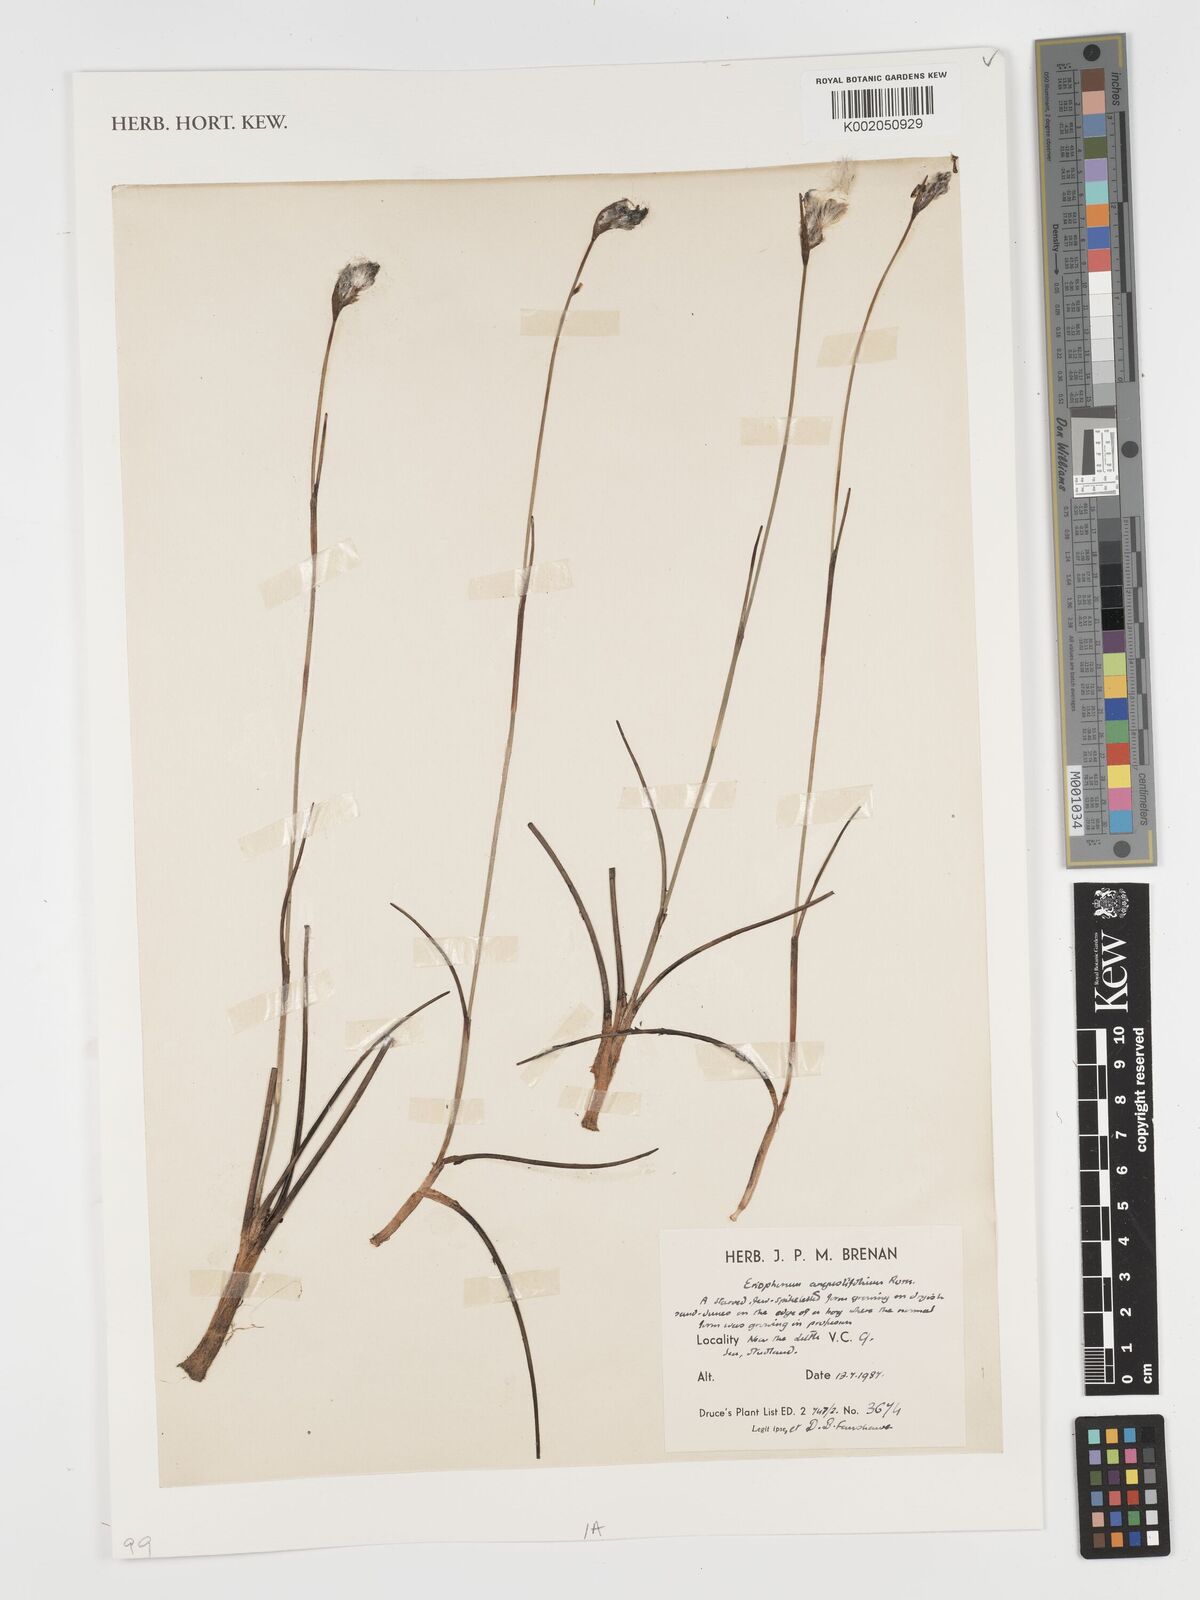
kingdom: Plantae
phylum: Tracheophyta
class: Liliopsida
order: Poales
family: Cyperaceae
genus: Eriophorum
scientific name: Eriophorum angustifolium
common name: Common cottongrass
